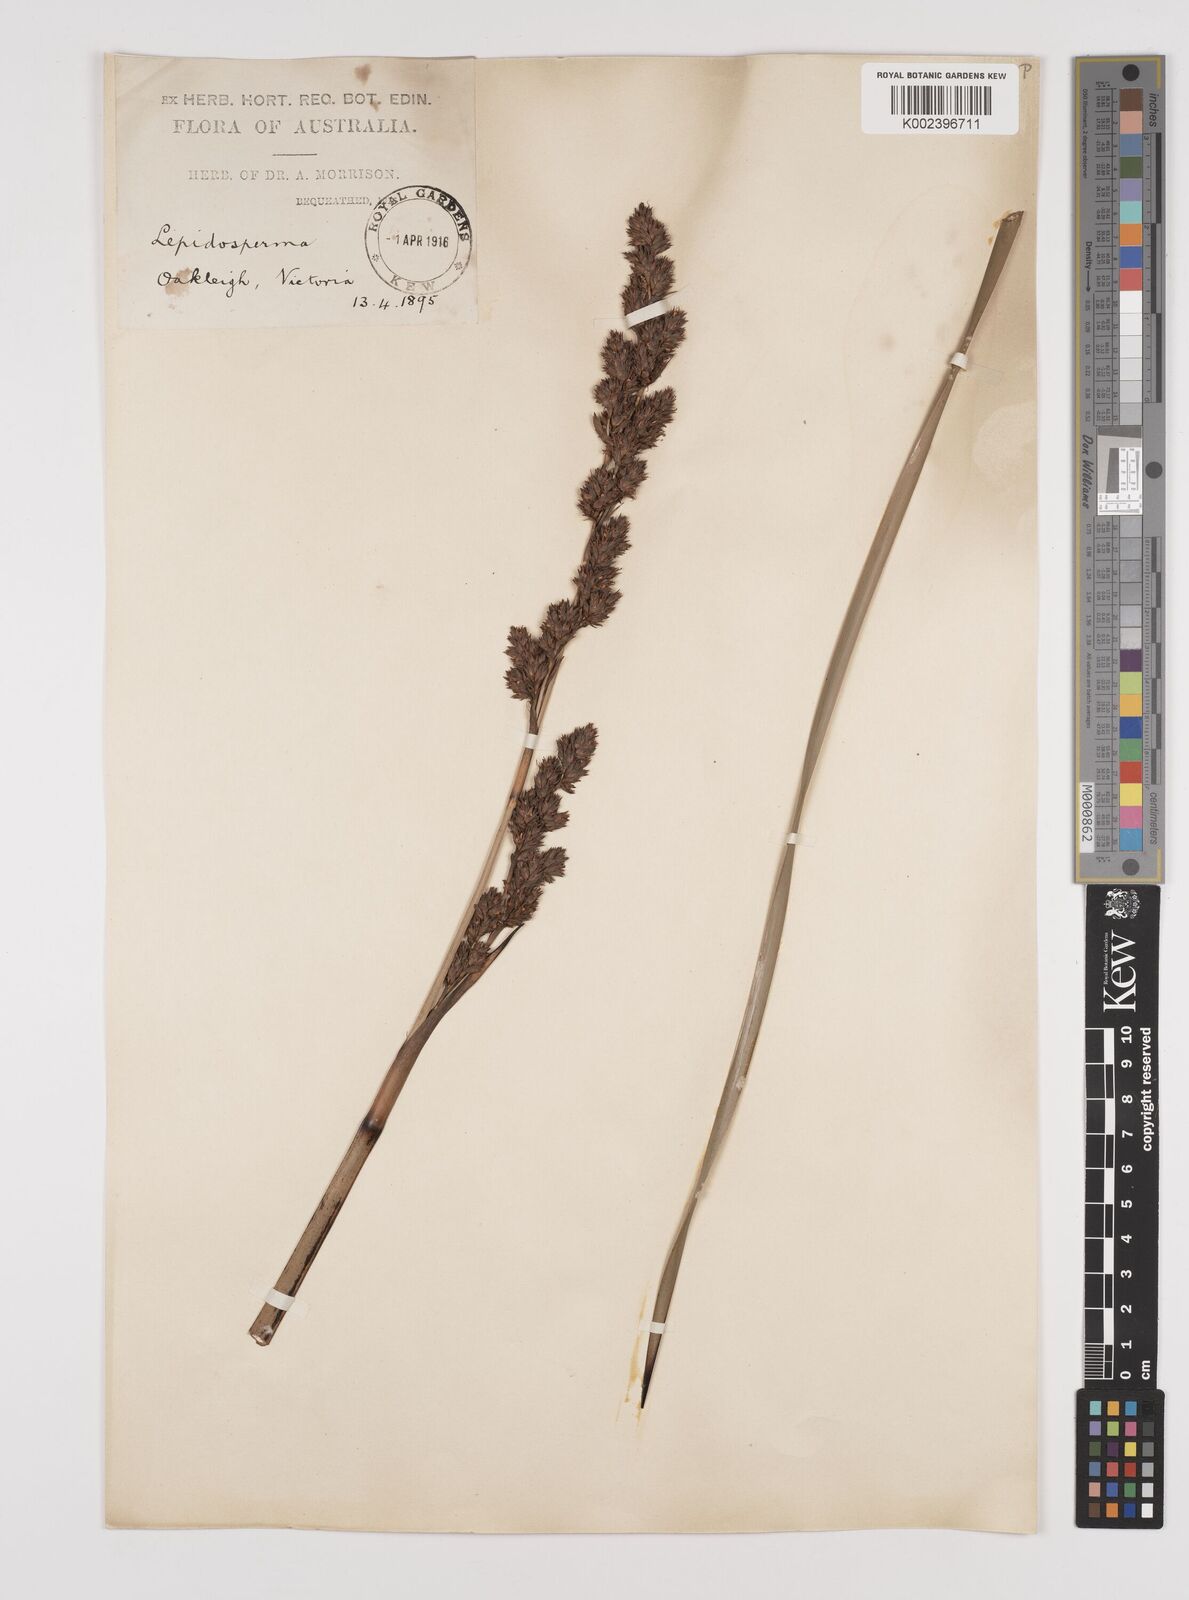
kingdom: Plantae
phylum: Tracheophyta
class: Liliopsida
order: Poales
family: Cyperaceae
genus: Lepidosperma
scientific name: Lepidosperma longitudinale
